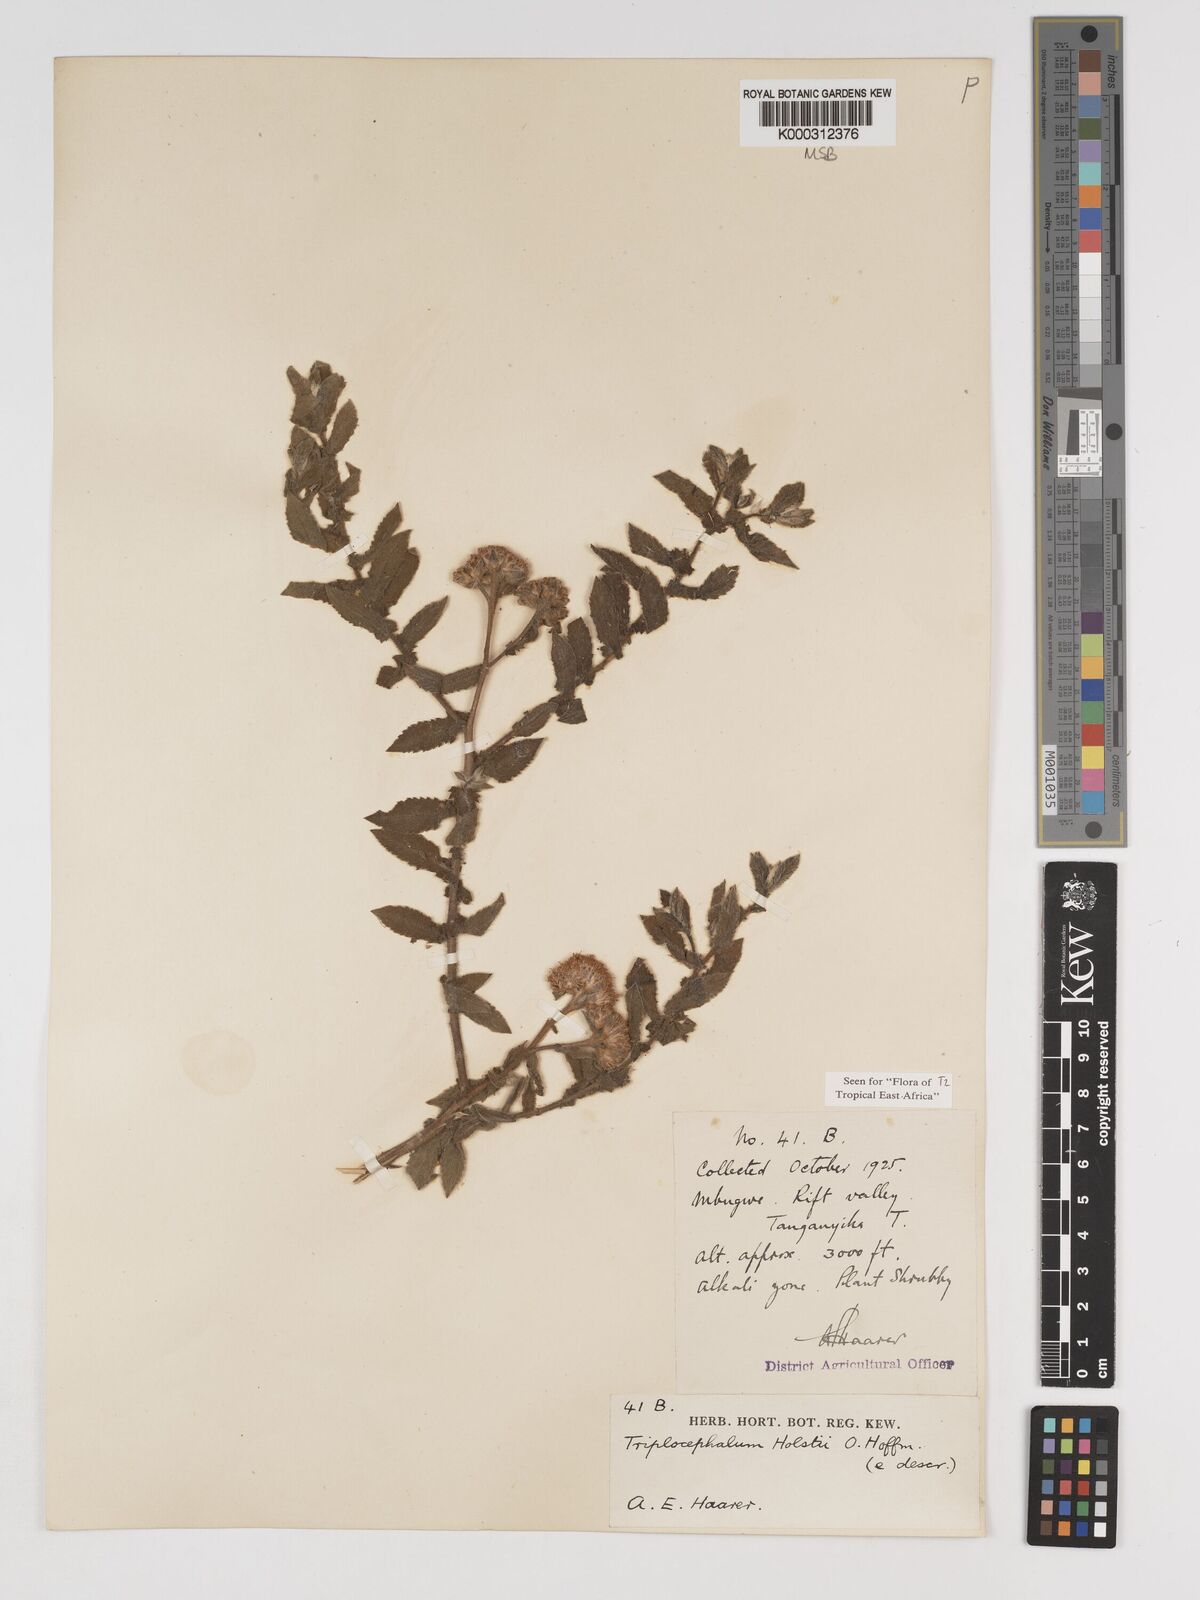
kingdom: Plantae
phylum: Tracheophyta
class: Magnoliopsida
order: Asterales
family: Asteraceae
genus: Triplocephalum
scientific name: Triplocephalum holstii
